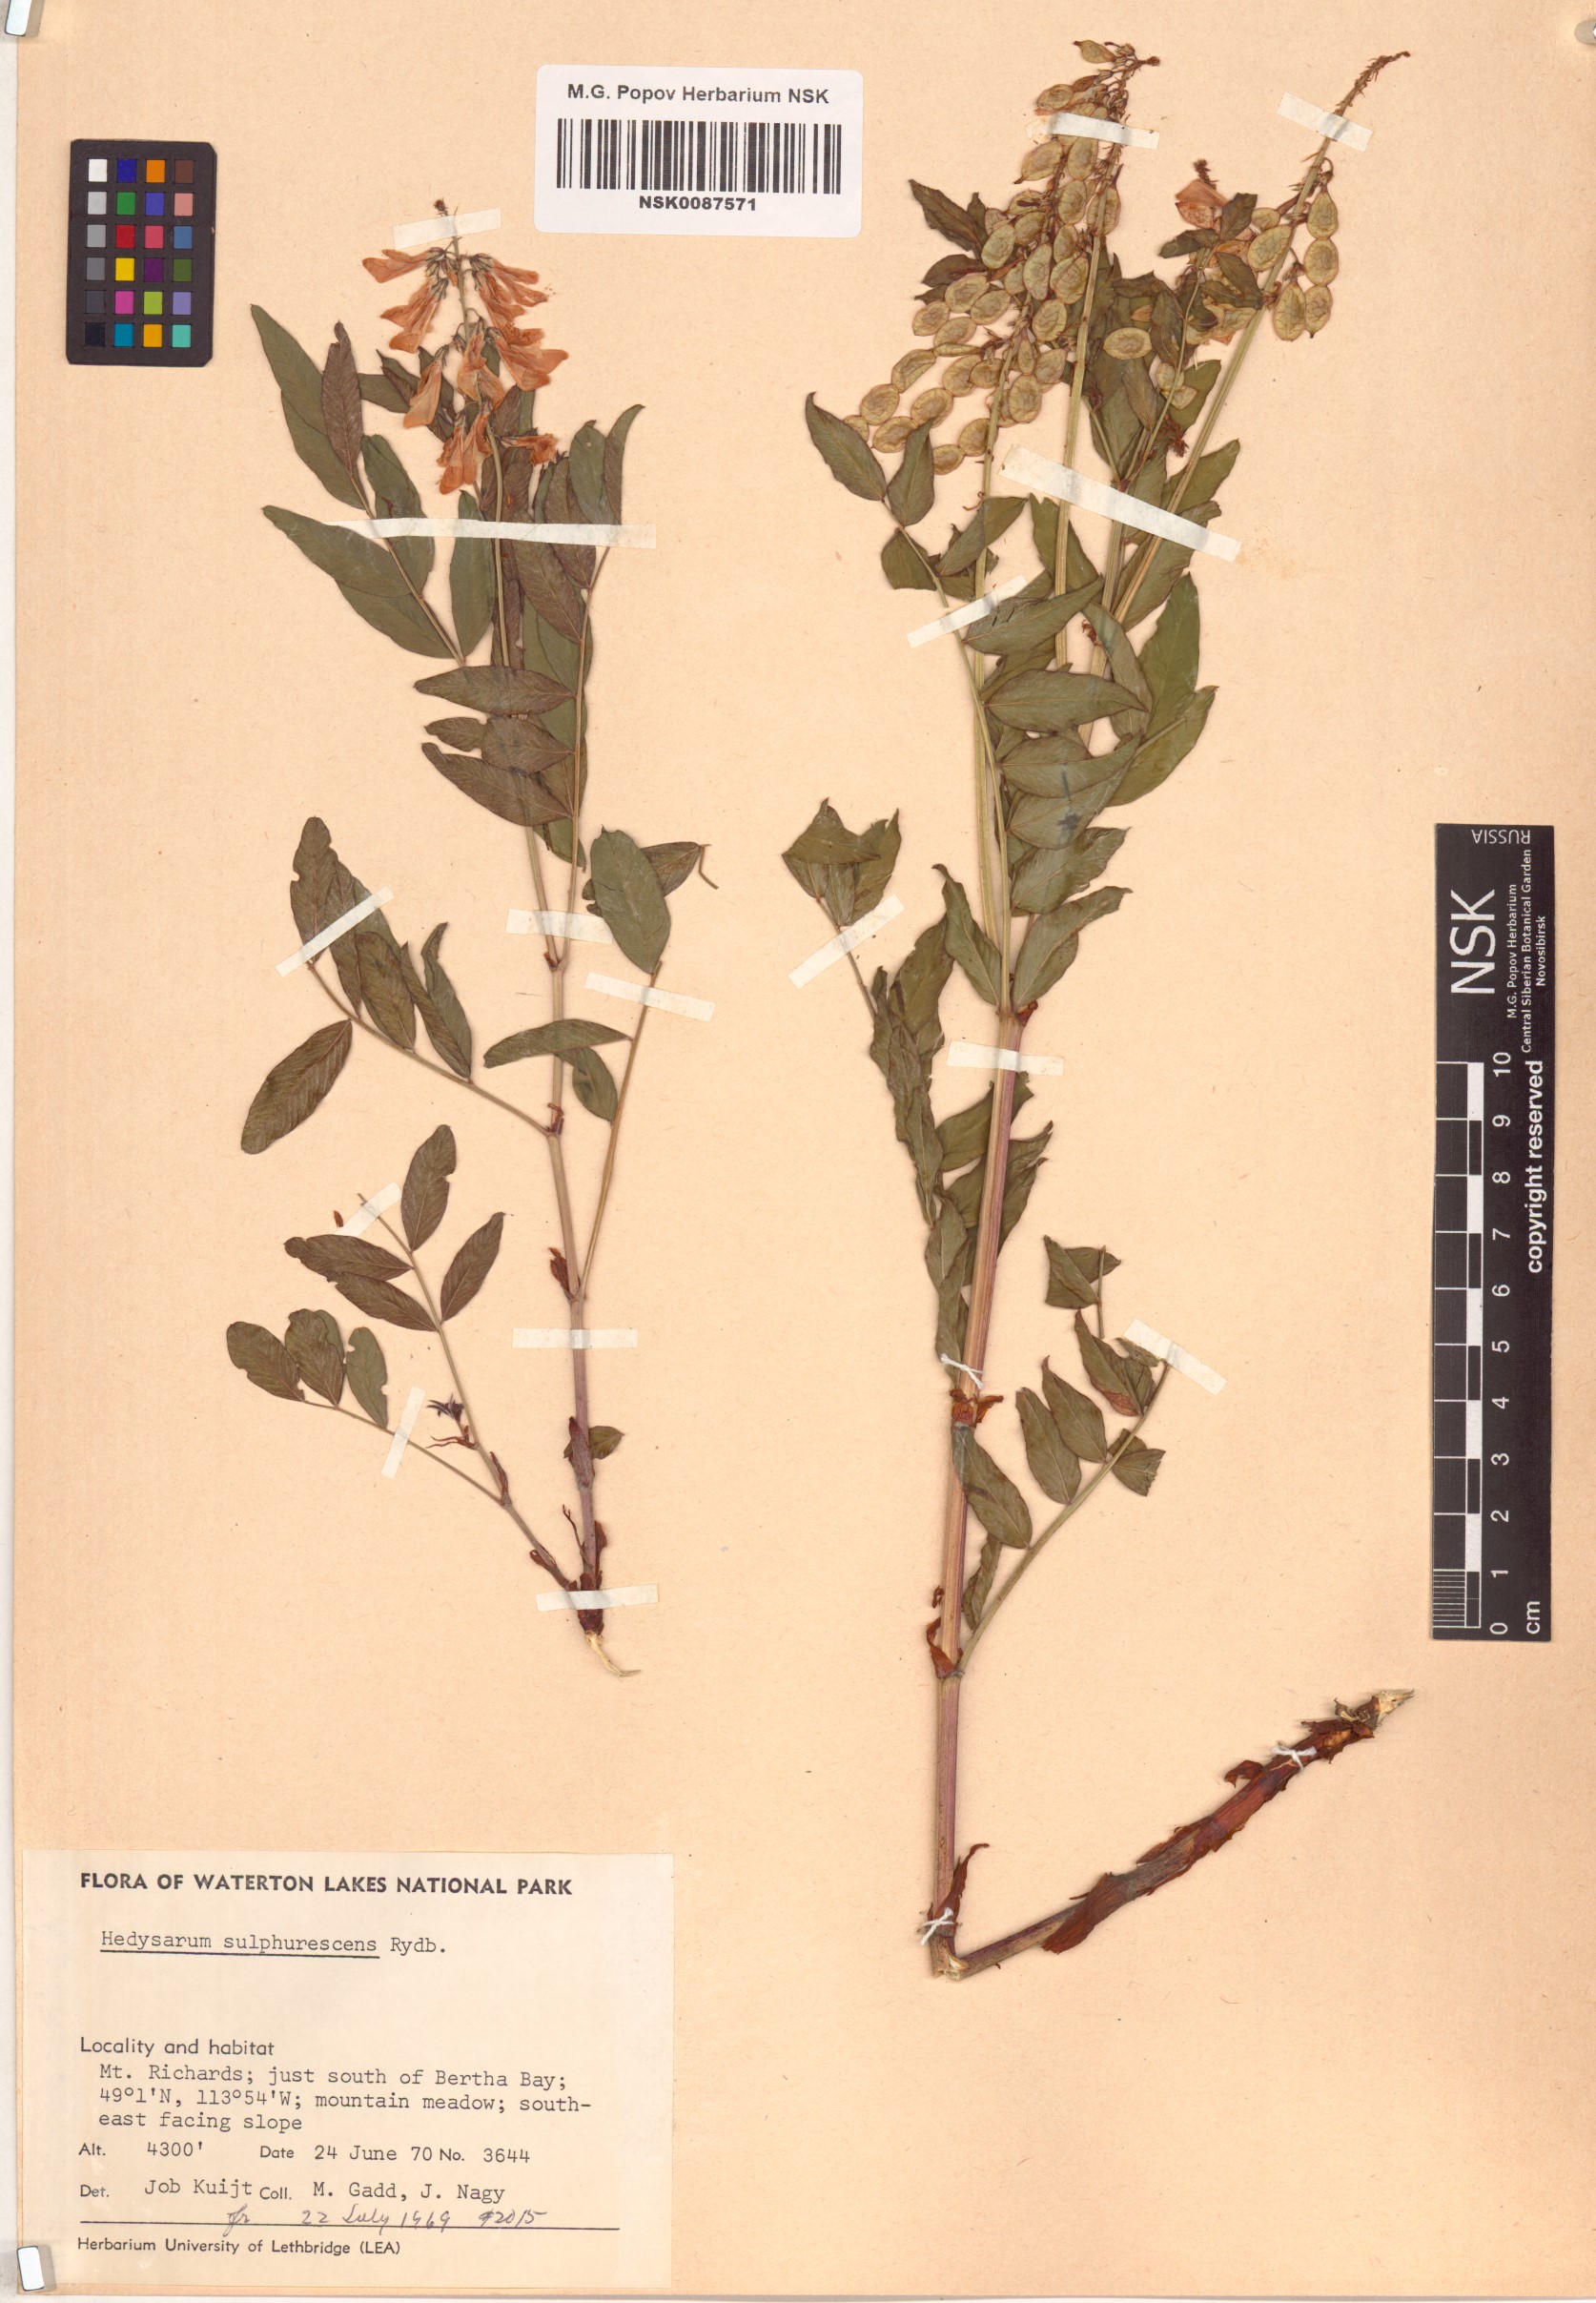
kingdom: Plantae
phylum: Tracheophyta
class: Magnoliopsida
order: Fabales
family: Fabaceae
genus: Hedysarum
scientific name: Hedysarum sulphurescens
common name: Sulphur hedysarum
